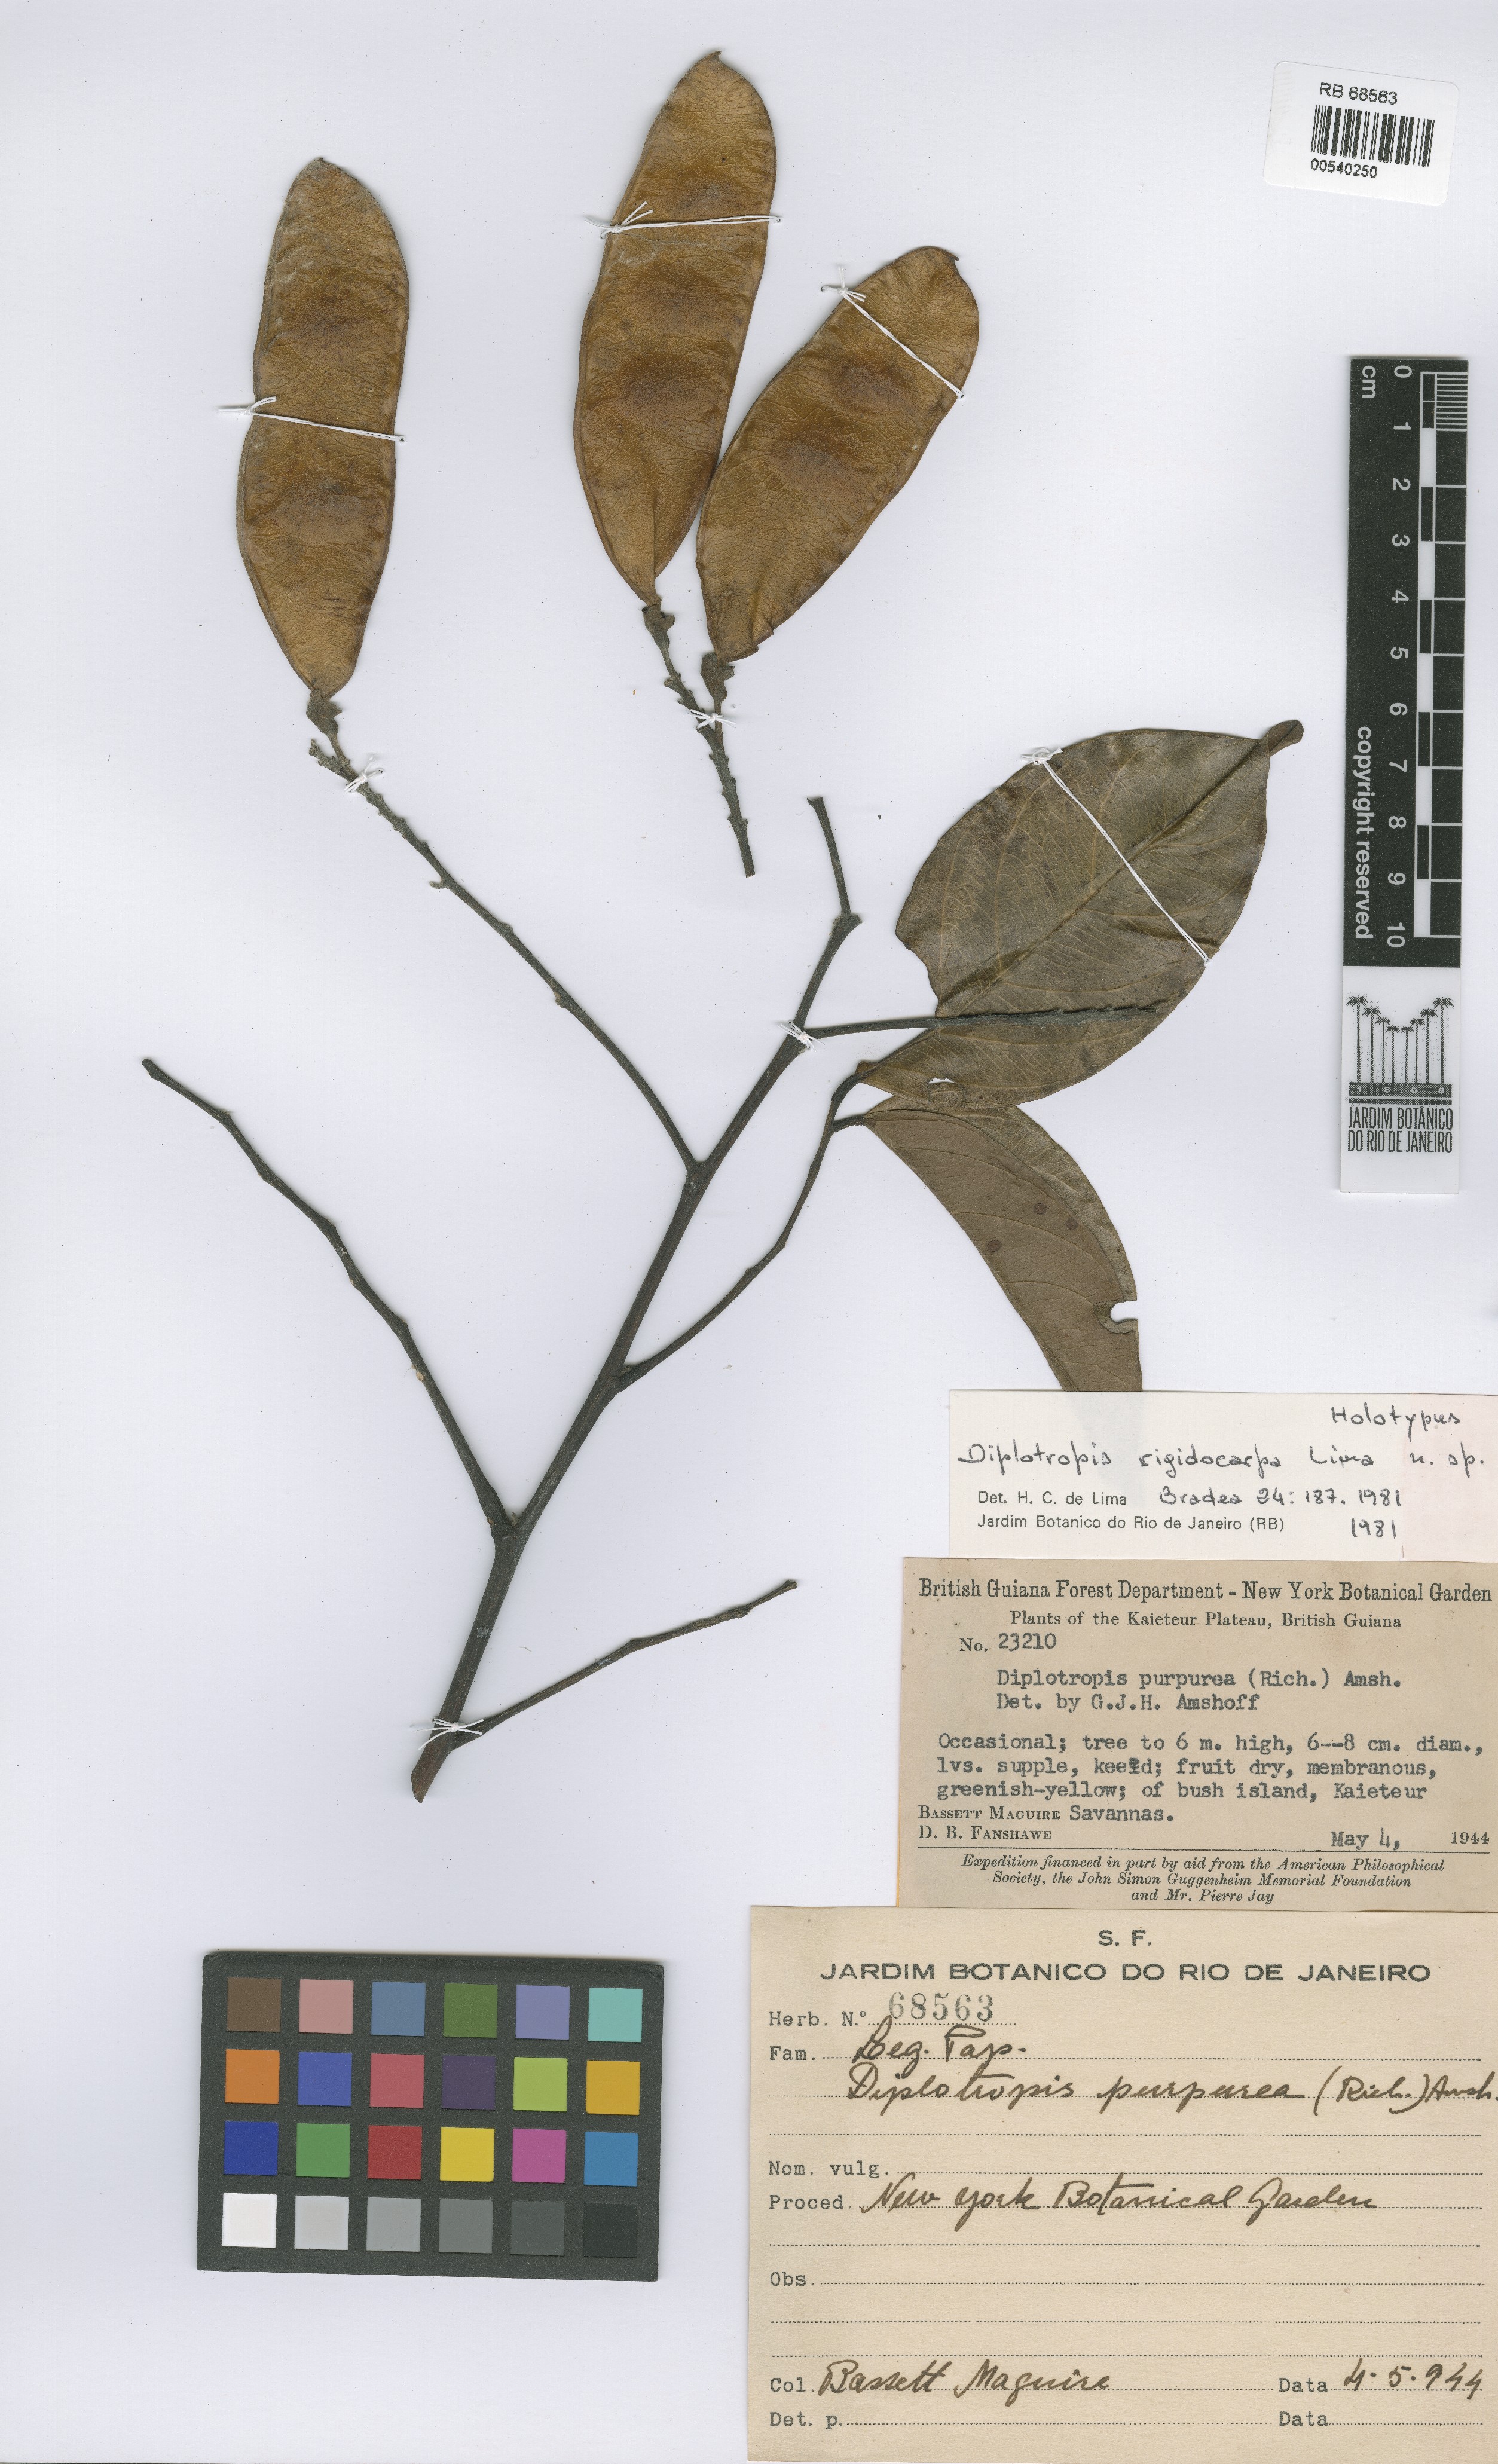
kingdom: Plantae
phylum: Tracheophyta
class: Magnoliopsida
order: Fabales
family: Fabaceae
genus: Diplotropis
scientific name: Diplotropis rigidocarpa
